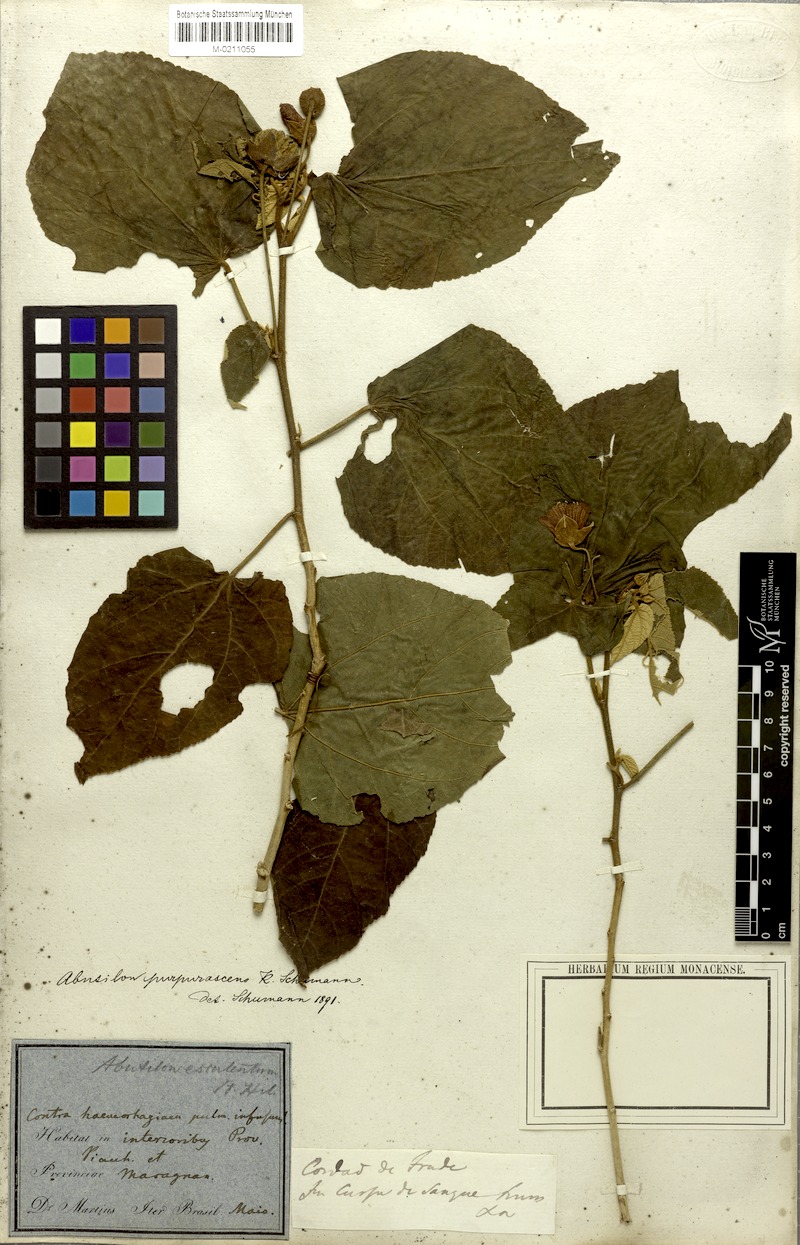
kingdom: Plantae
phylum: Tracheophyta
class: Magnoliopsida
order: Malvales
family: Malvaceae
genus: Bakeridesia
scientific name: Bakeridesia esculenta
